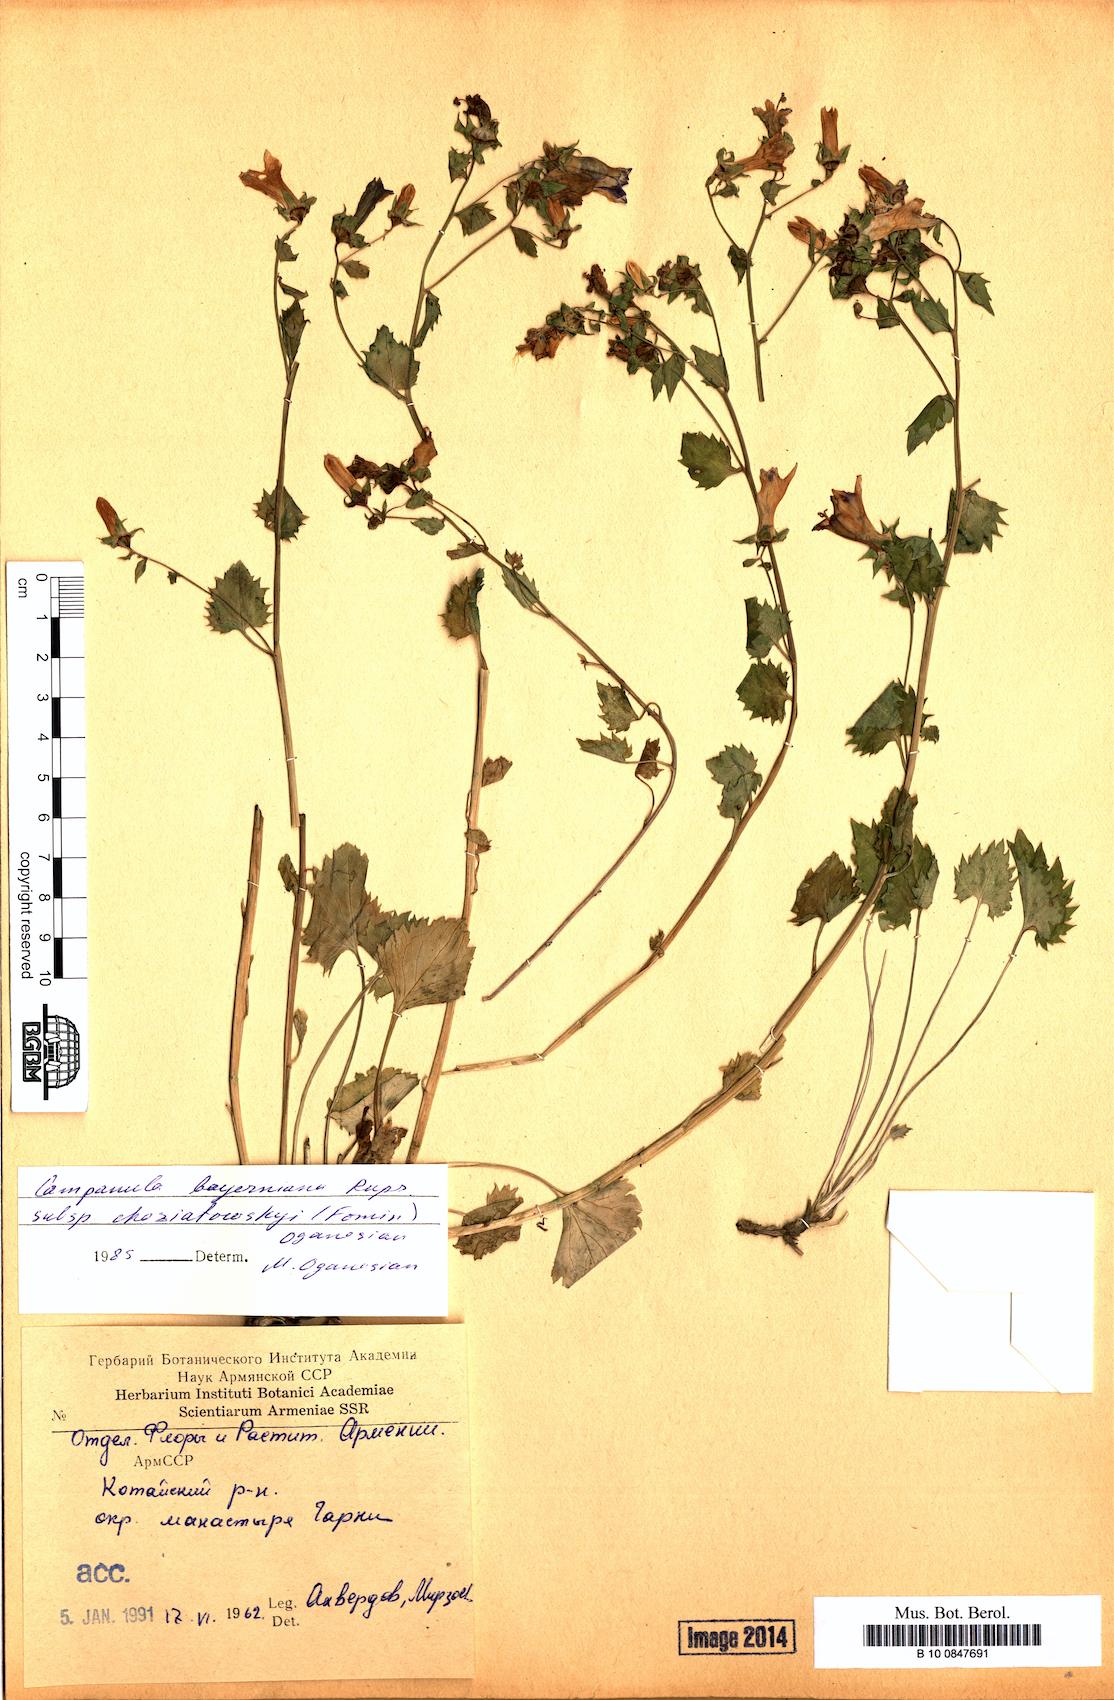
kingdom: Plantae
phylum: Tracheophyta
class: Magnoliopsida
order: Asterales
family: Campanulaceae
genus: Campanula
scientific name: Campanula bayerniana
